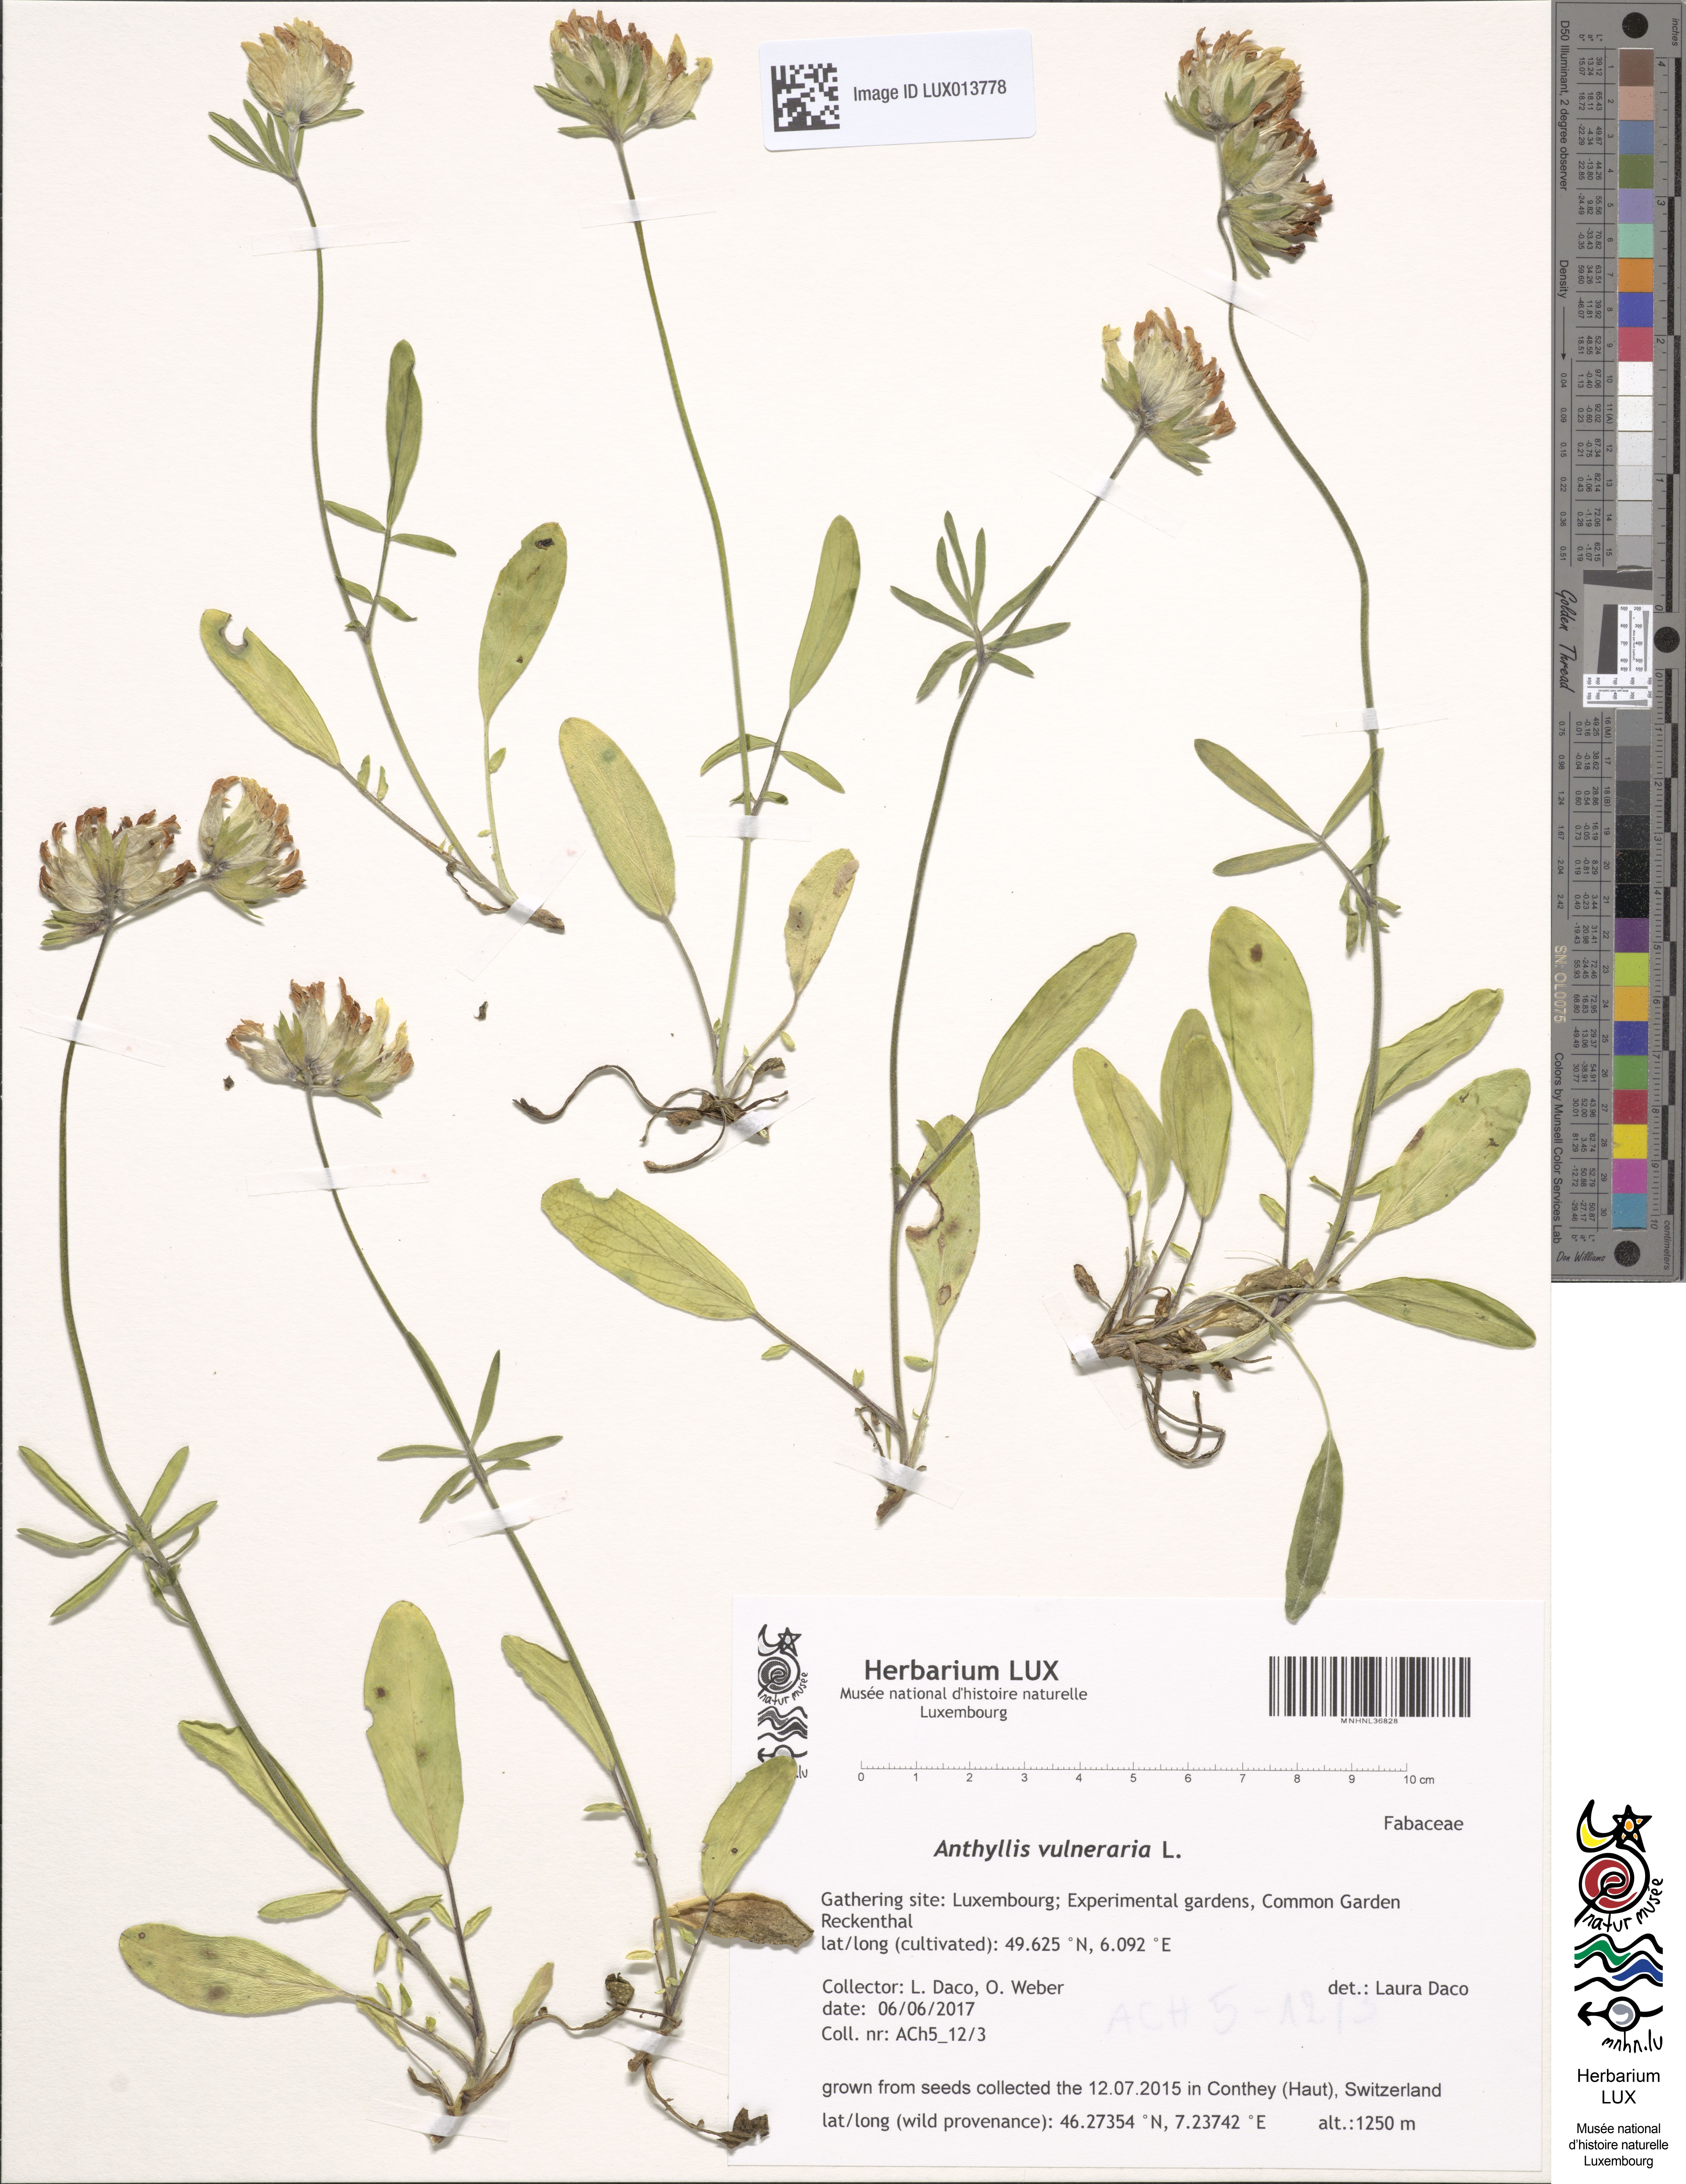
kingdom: Plantae
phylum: Tracheophyta
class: Magnoliopsida
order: Fabales
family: Fabaceae
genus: Anthyllis
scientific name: Anthyllis vulneraria
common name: Kidney vetch
